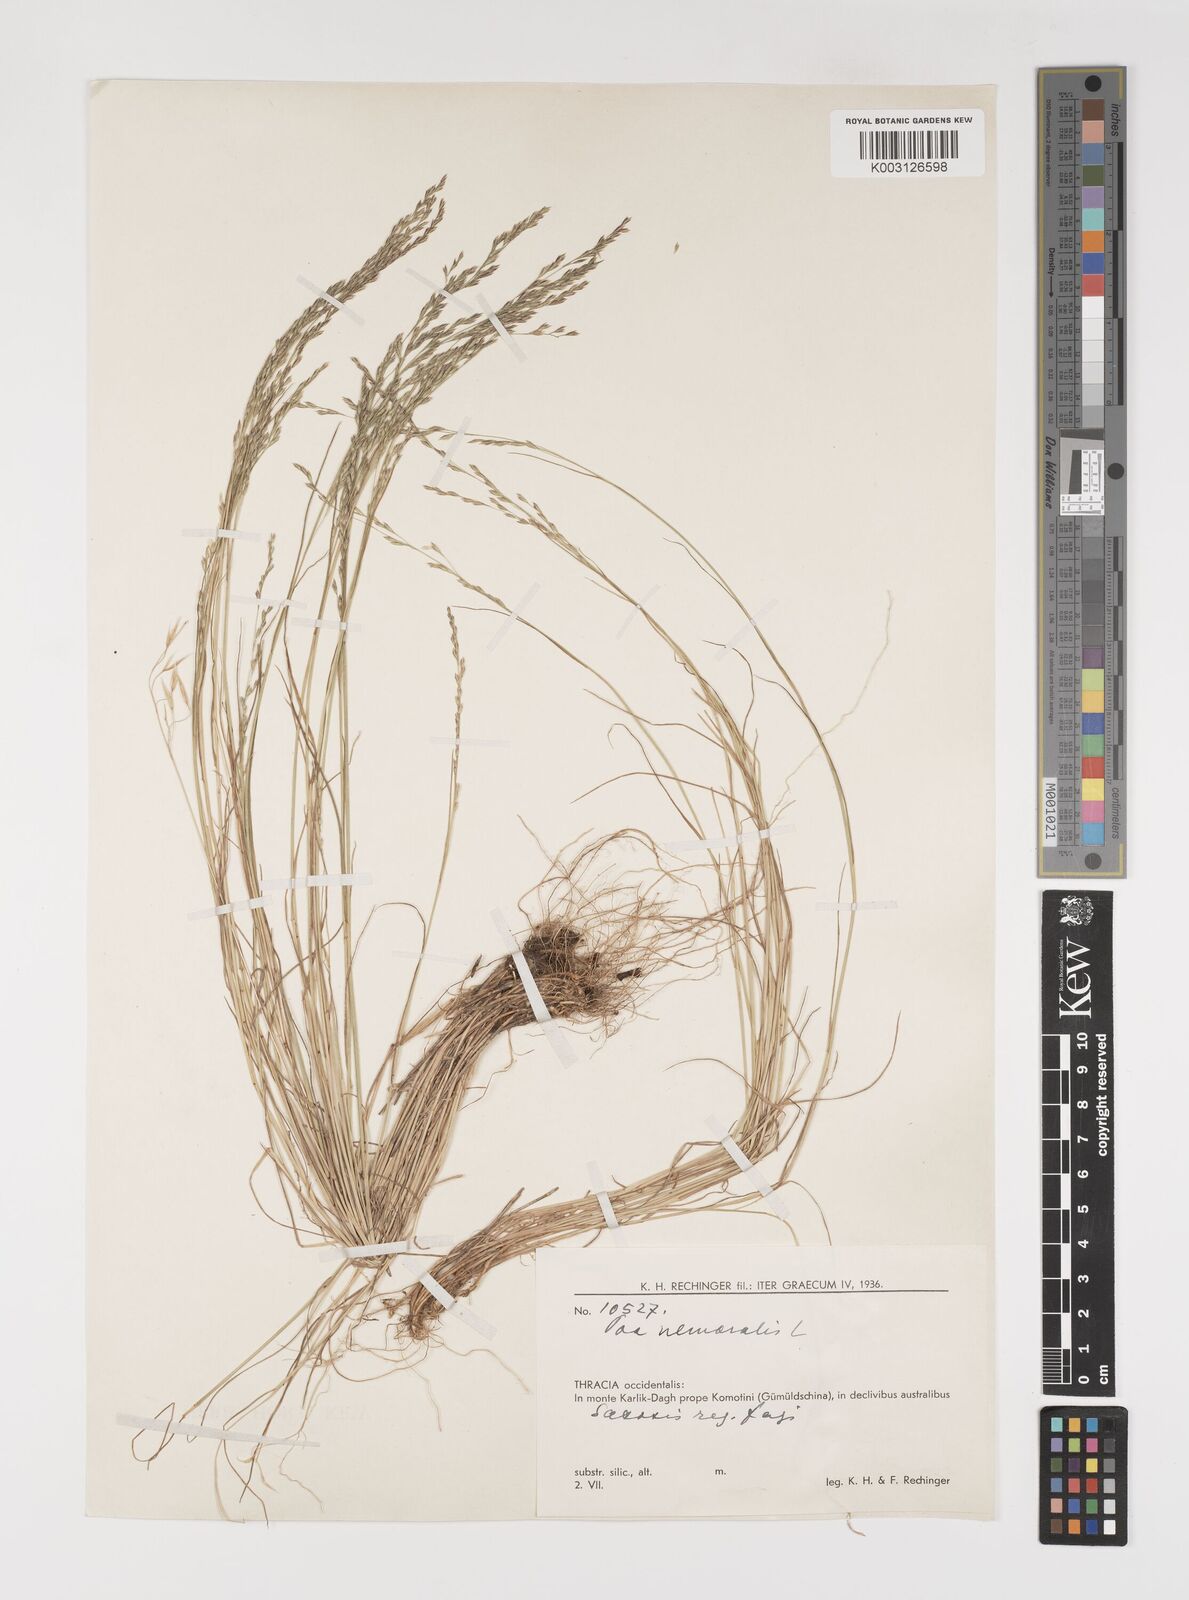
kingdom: Plantae
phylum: Tracheophyta
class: Liliopsida
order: Poales
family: Poaceae
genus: Poa
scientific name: Poa nemoralis
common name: Wood bluegrass
